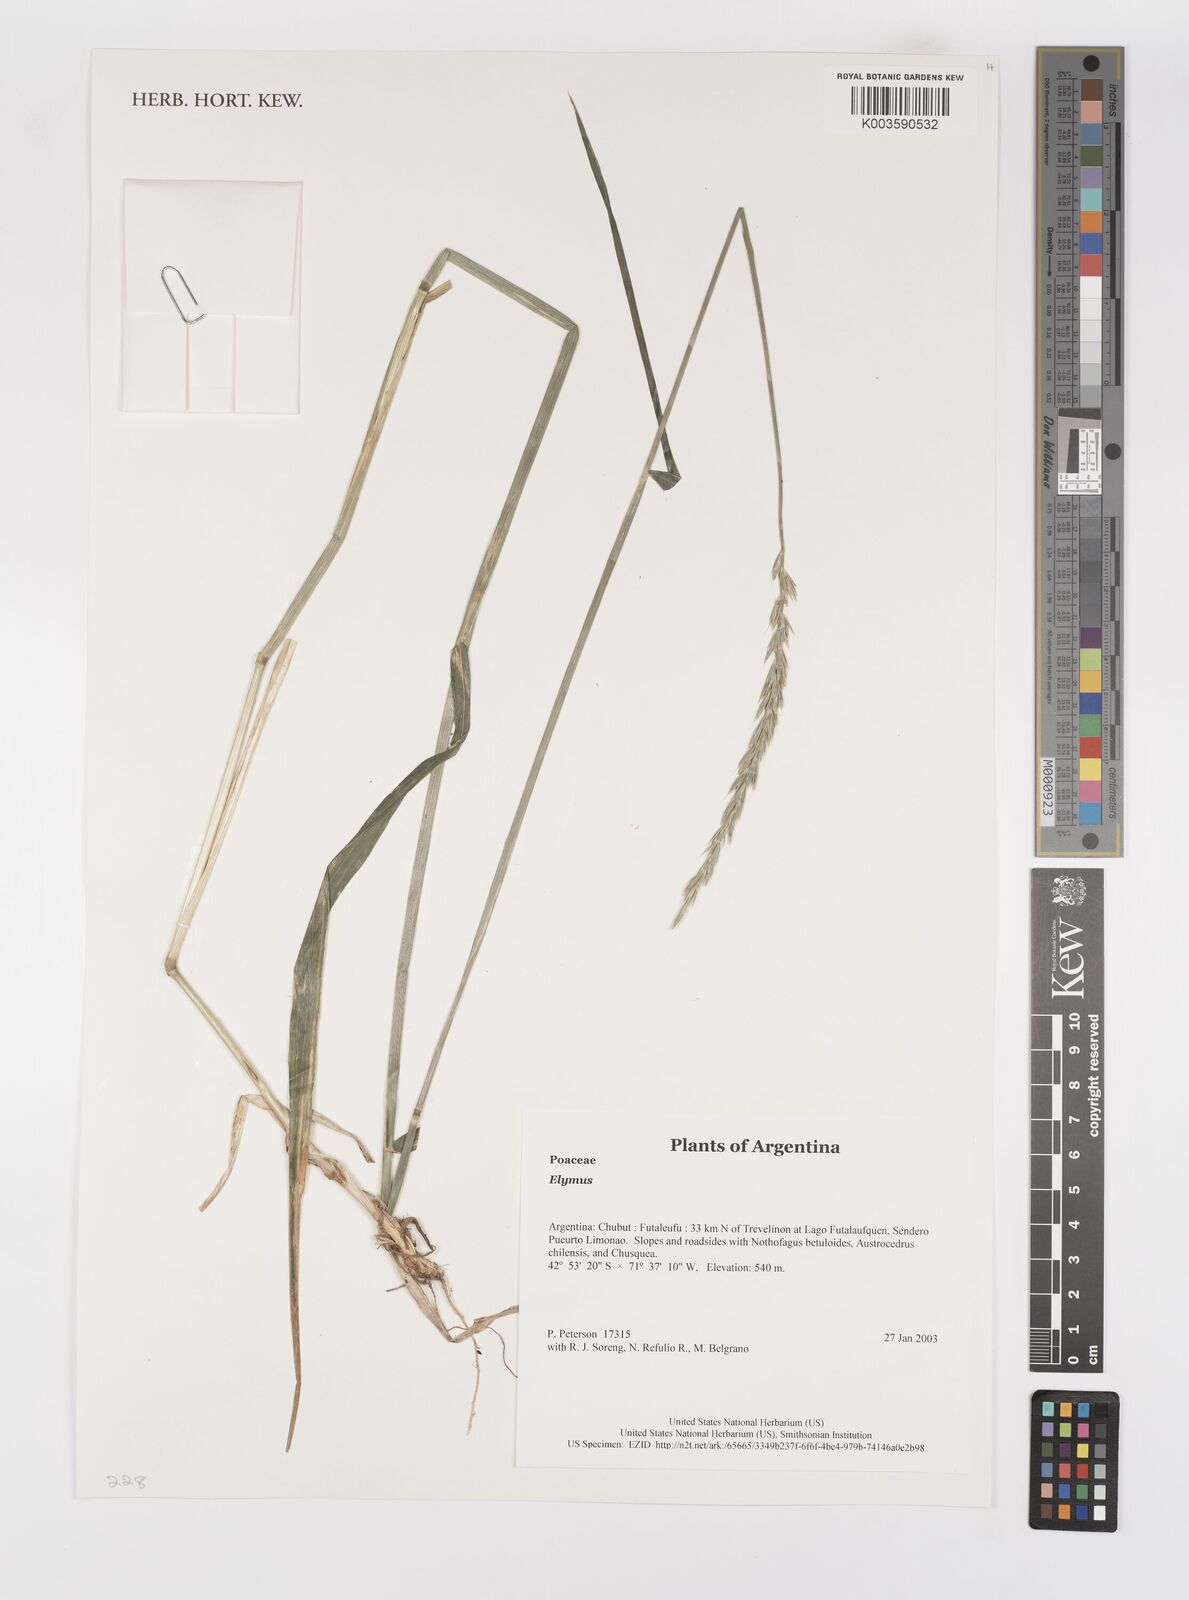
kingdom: Plantae
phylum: Tracheophyta
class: Liliopsida
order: Poales
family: Poaceae
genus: Elymus
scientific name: Elymus
